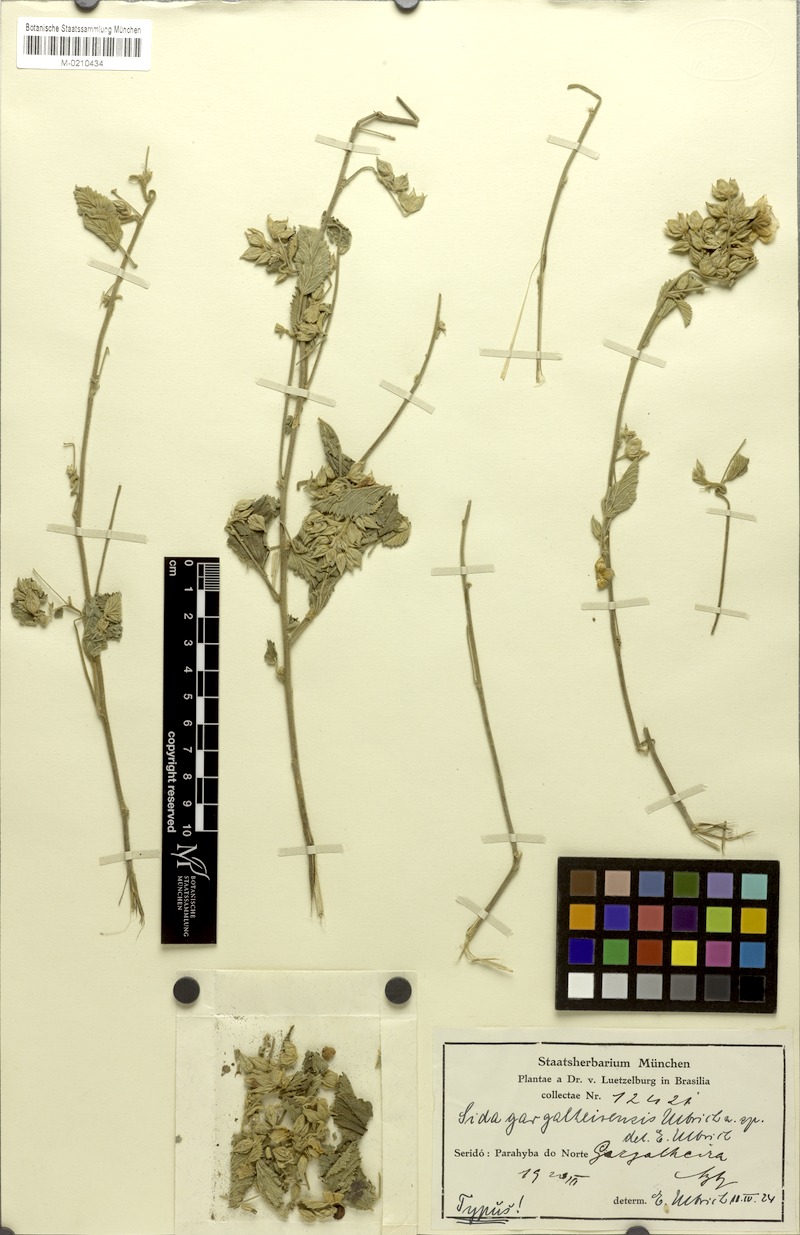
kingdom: Plantae
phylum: Tracheophyta
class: Magnoliopsida
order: Malvales
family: Malvaceae
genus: Sida
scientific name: Sida gargatheirensis
